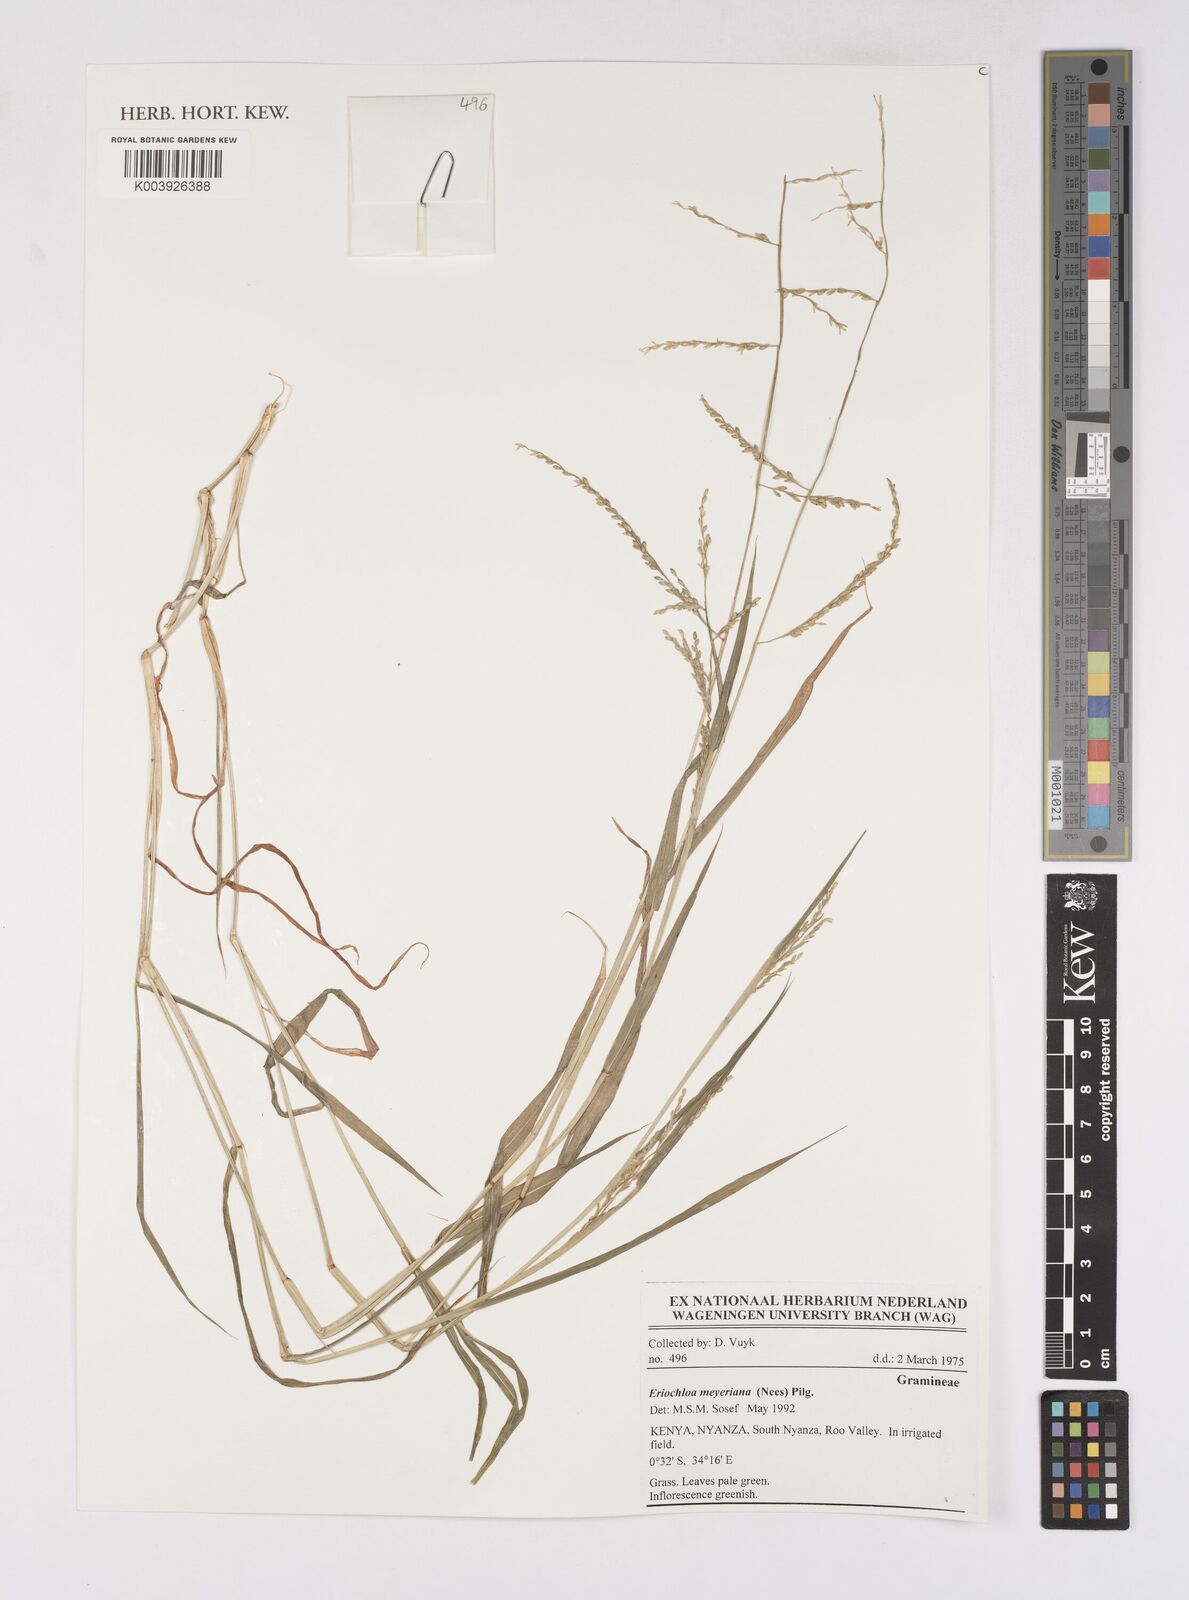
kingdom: Plantae
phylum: Tracheophyta
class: Liliopsida
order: Poales
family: Poaceae
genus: Eriochloa
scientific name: Eriochloa meyeriana
